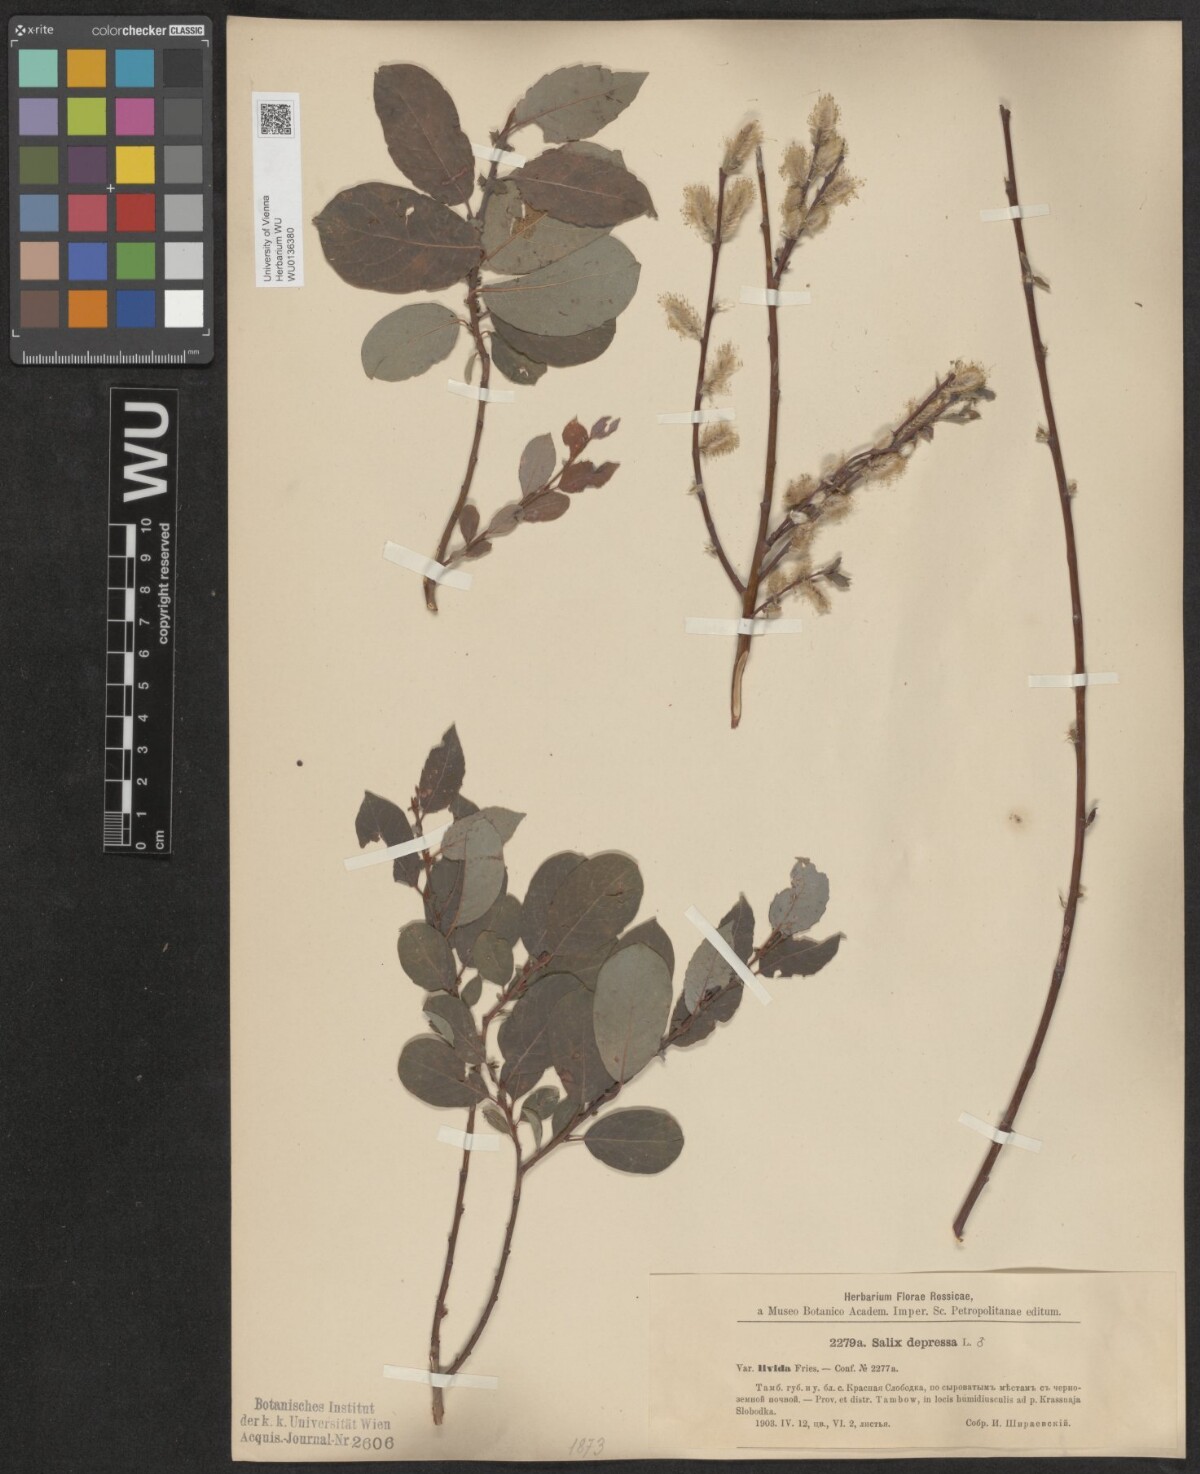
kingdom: Plantae
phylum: Tracheophyta
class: Magnoliopsida
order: Malpighiales
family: Salicaceae
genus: Salix
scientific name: Salix lanata
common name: Woolly willow
